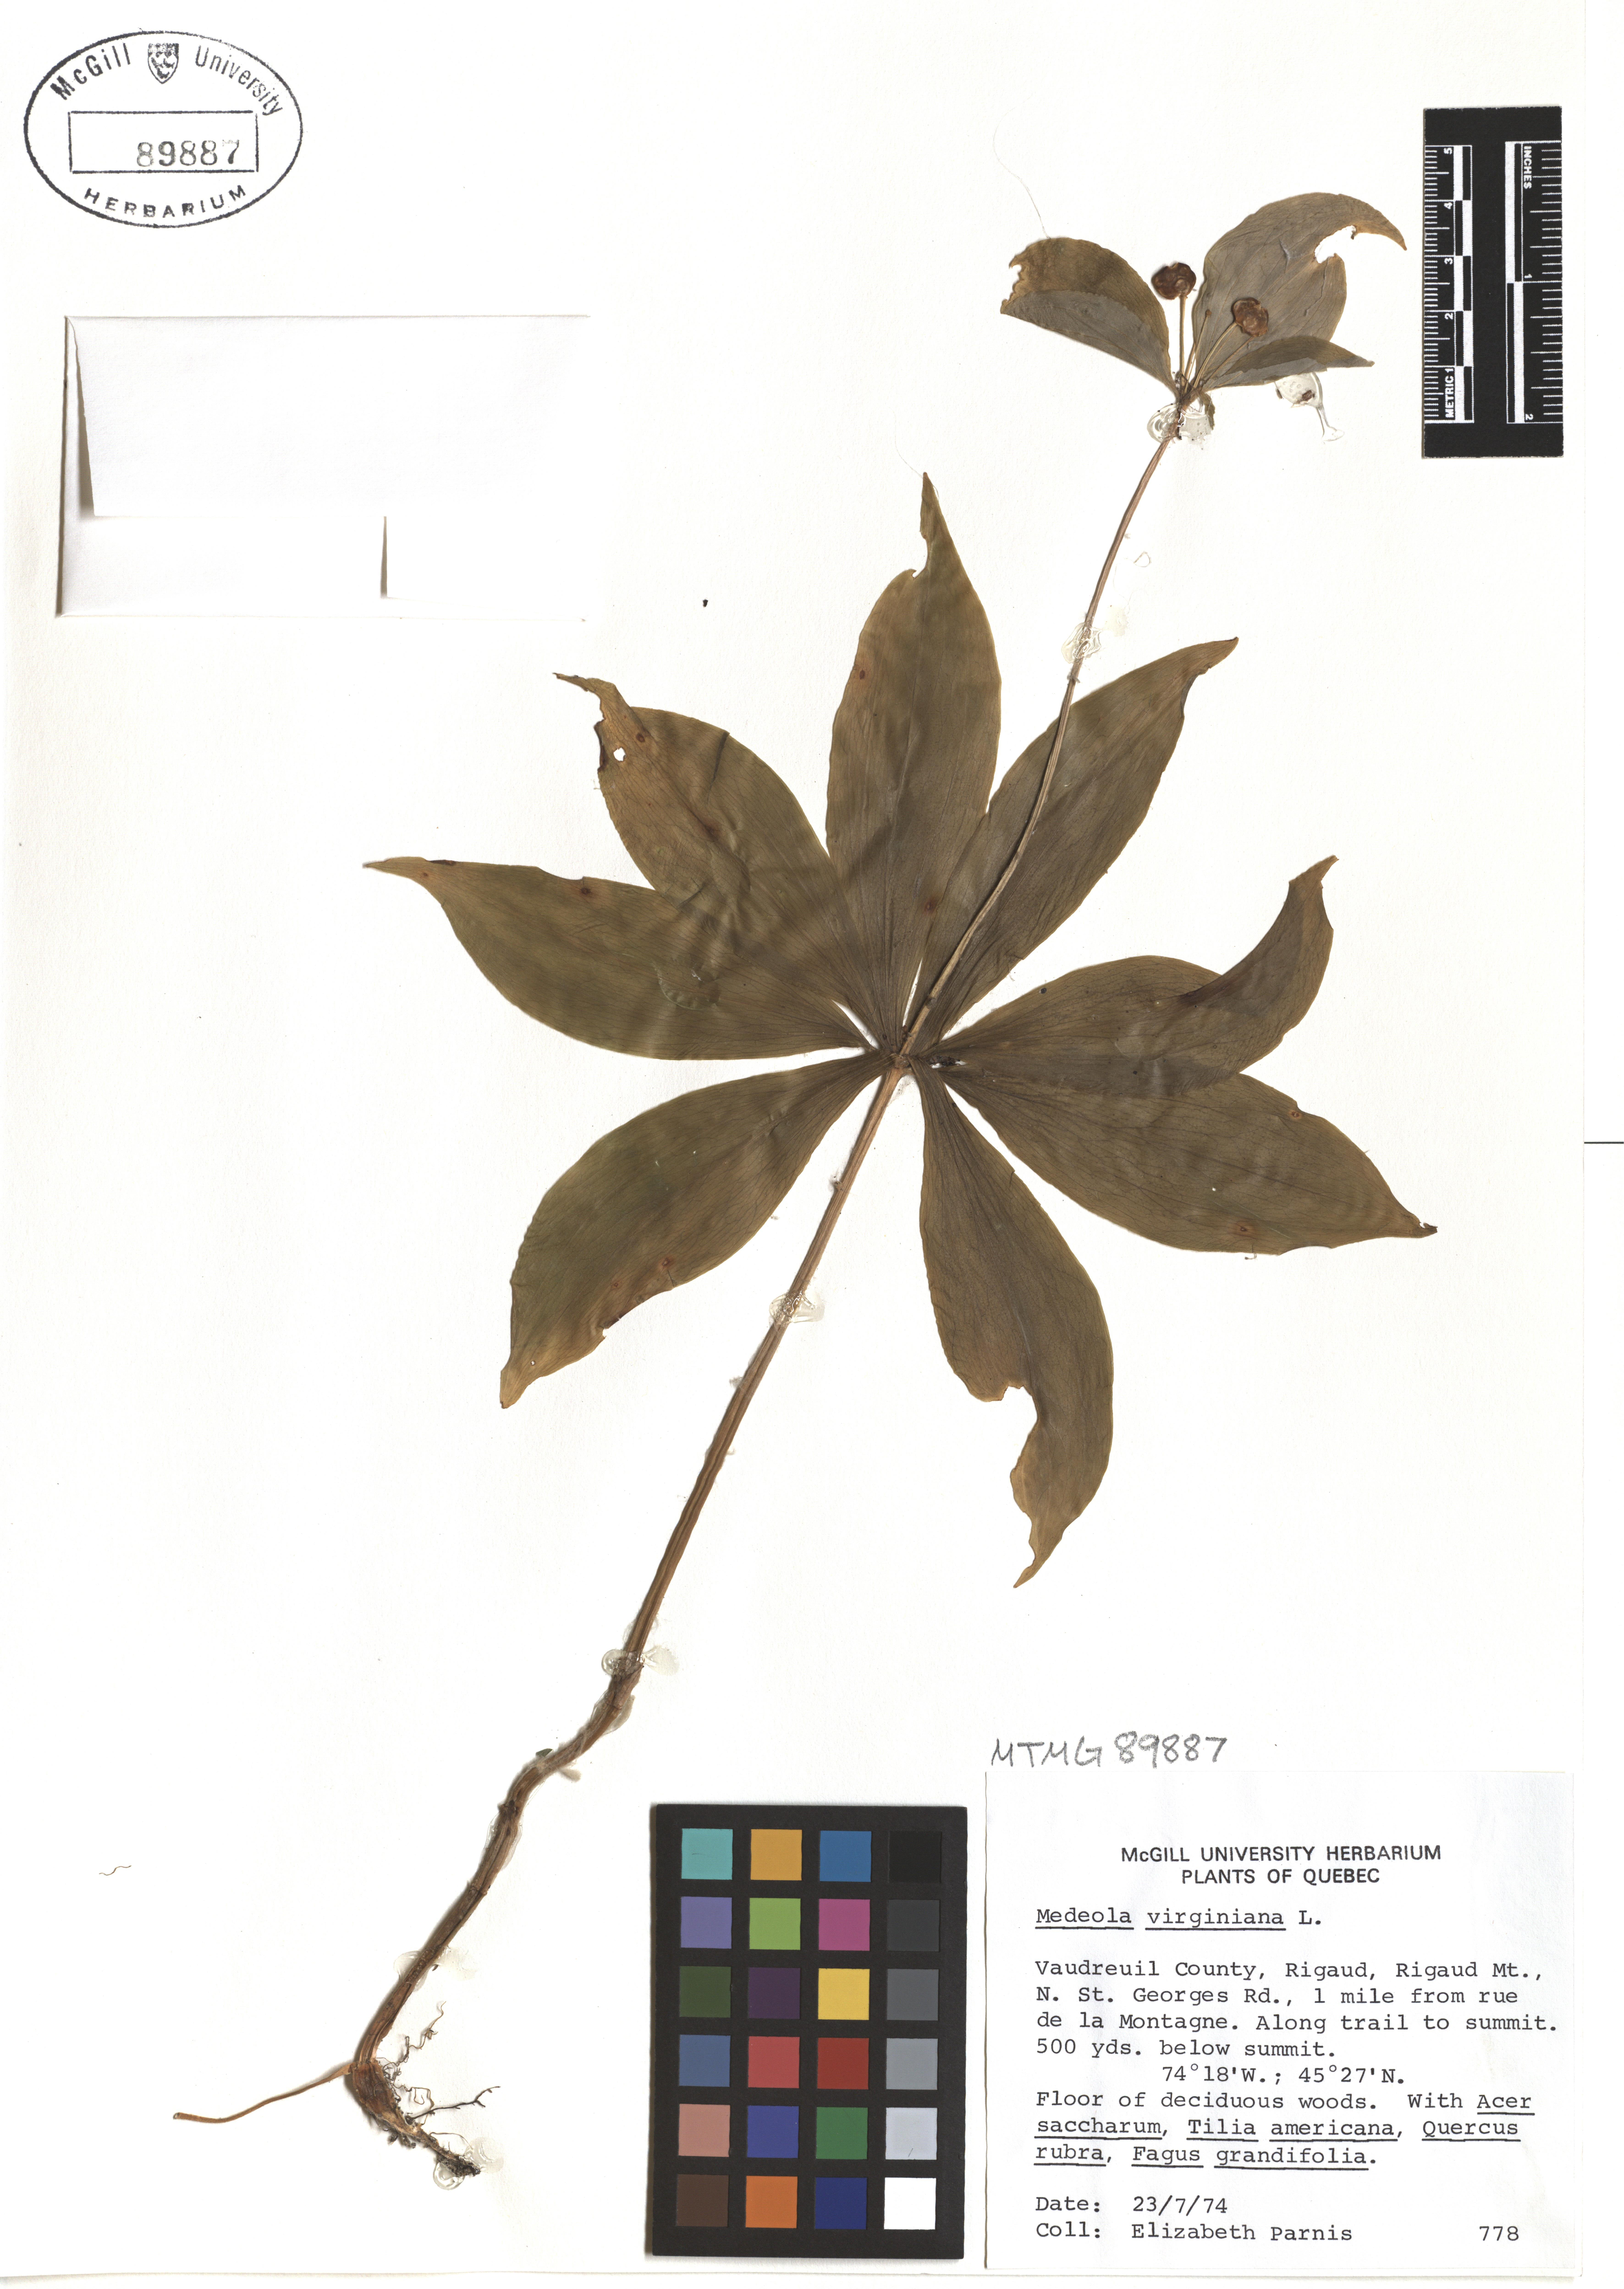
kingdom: Plantae
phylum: Tracheophyta
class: Liliopsida
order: Liliales
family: Liliaceae
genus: Medeola
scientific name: Medeola virginiana
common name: Indian cucumber-root
